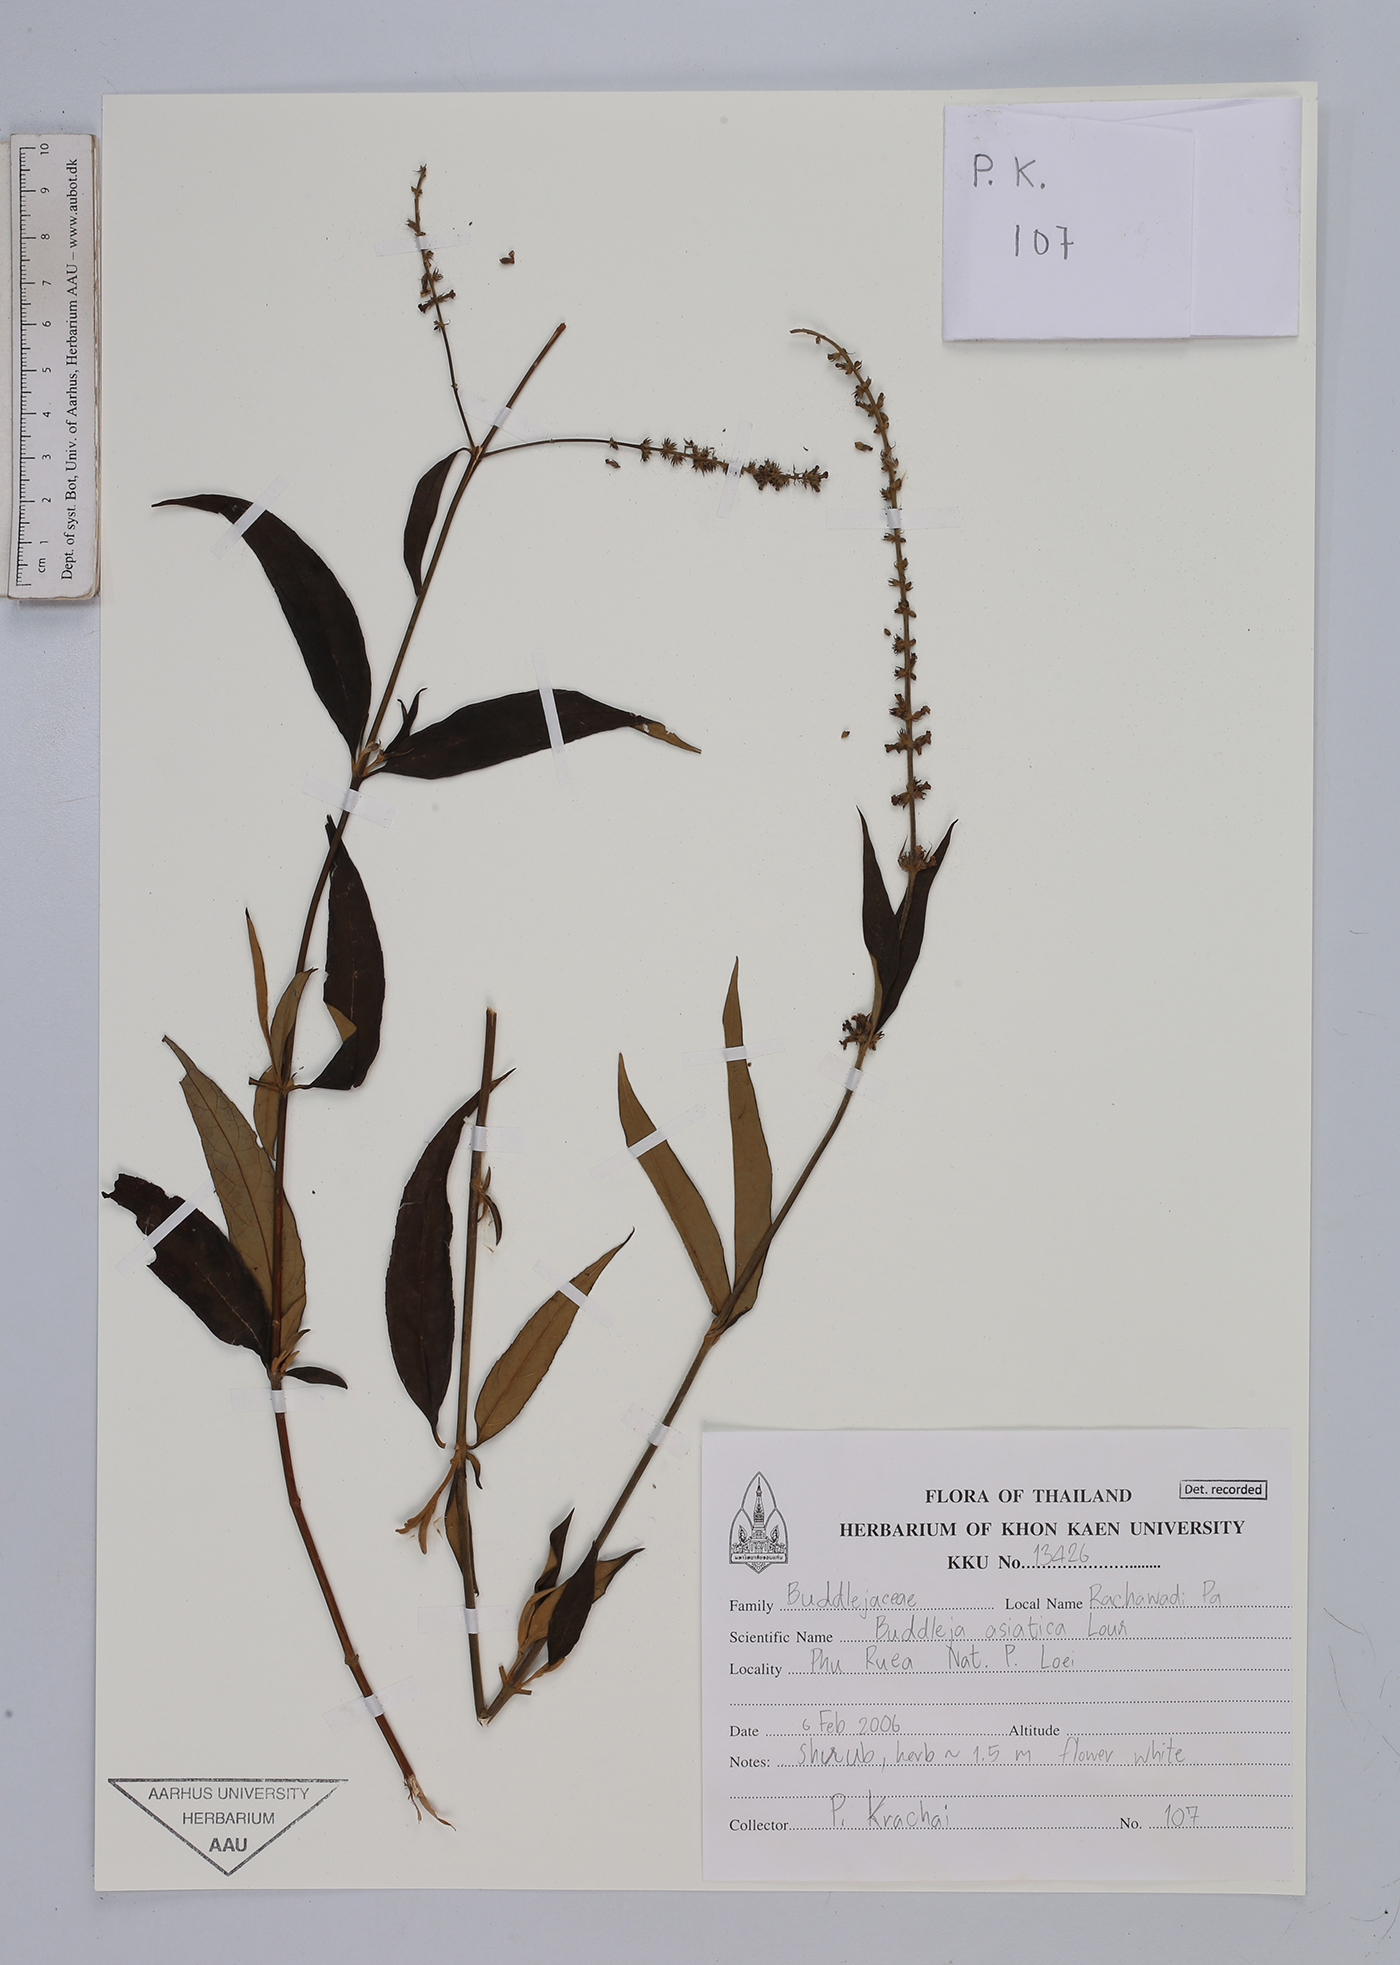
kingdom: Plantae
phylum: Tracheophyta
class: Magnoliopsida
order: Lamiales
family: Scrophulariaceae
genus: Buddleja
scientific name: Buddleja asiatica
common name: Dog tail
